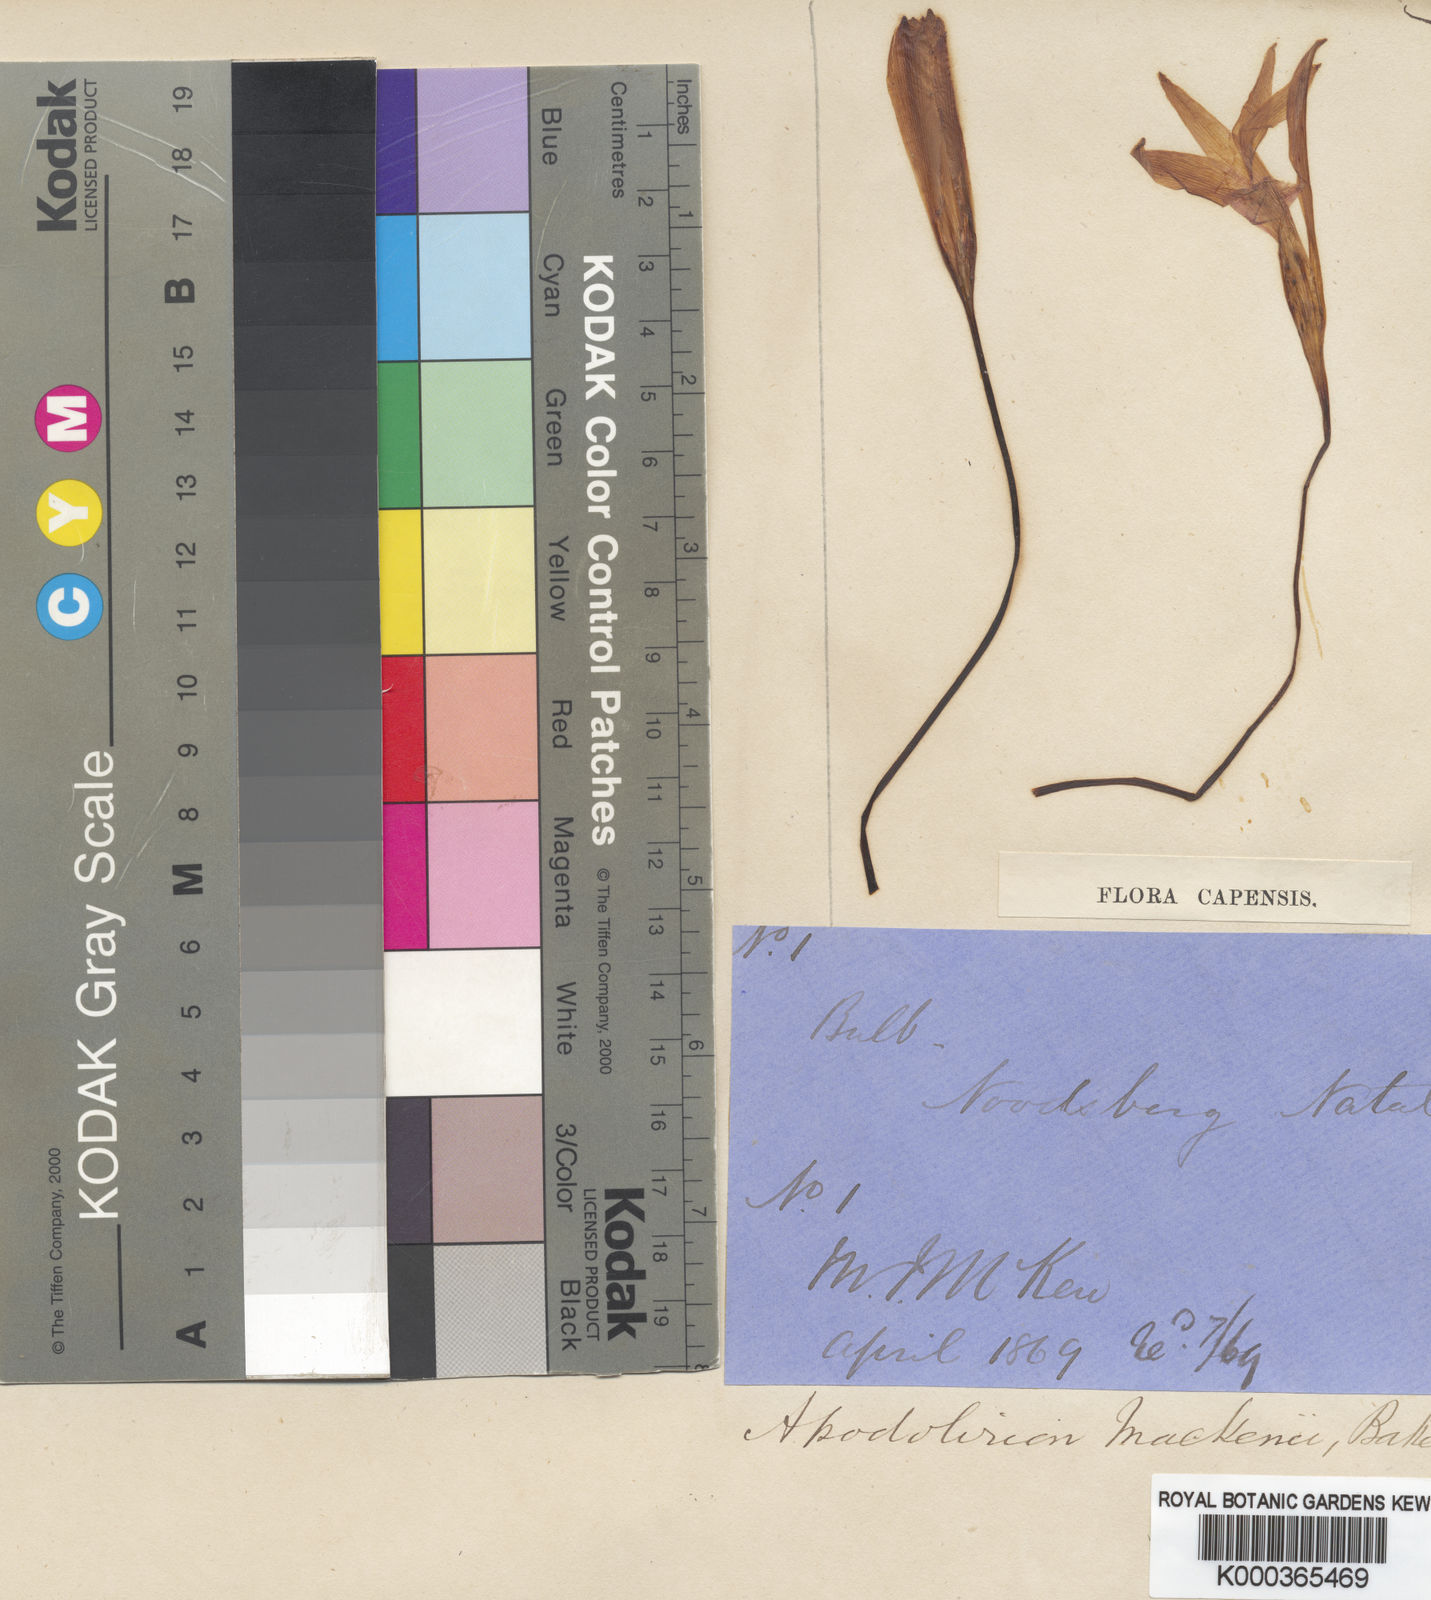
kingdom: Plantae
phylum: Tracheophyta
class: Liliopsida
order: Asparagales
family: Amaryllidaceae
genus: Apodolirion
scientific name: Apodolirion buchananii
